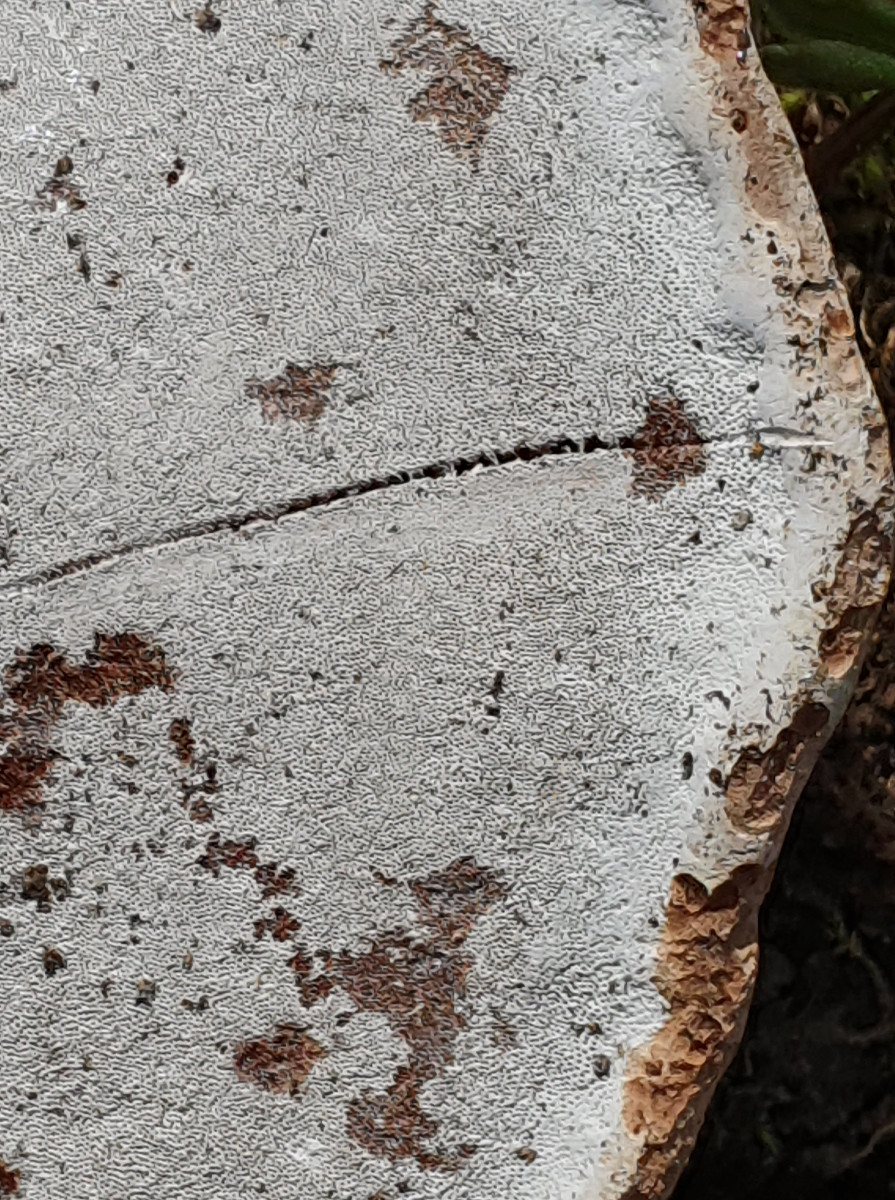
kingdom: Fungi
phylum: Basidiomycota
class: Agaricomycetes
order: Polyporales
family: Polyporaceae
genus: Ganoderma
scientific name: Ganoderma applanatum
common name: flad lakporesvamp
